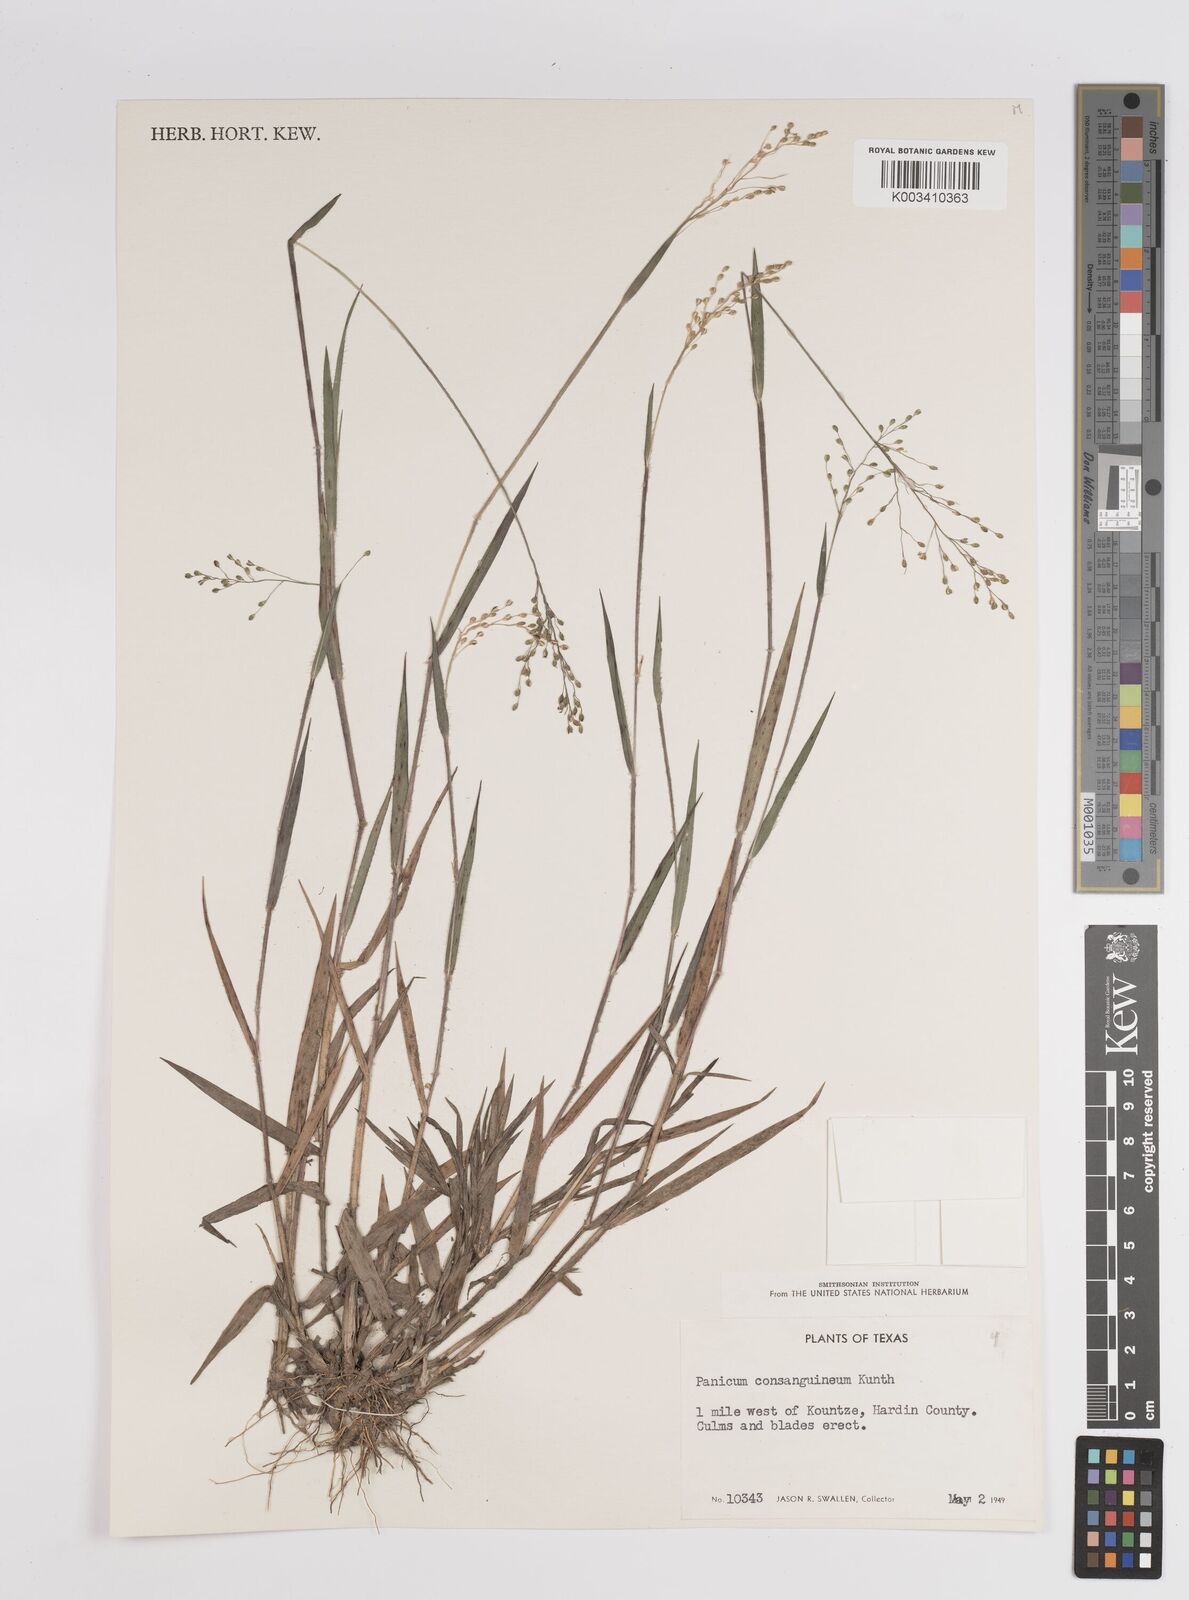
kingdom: Plantae
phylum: Tracheophyta
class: Liliopsida
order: Poales
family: Poaceae
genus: Dichanthelium
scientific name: Dichanthelium consanguineum
